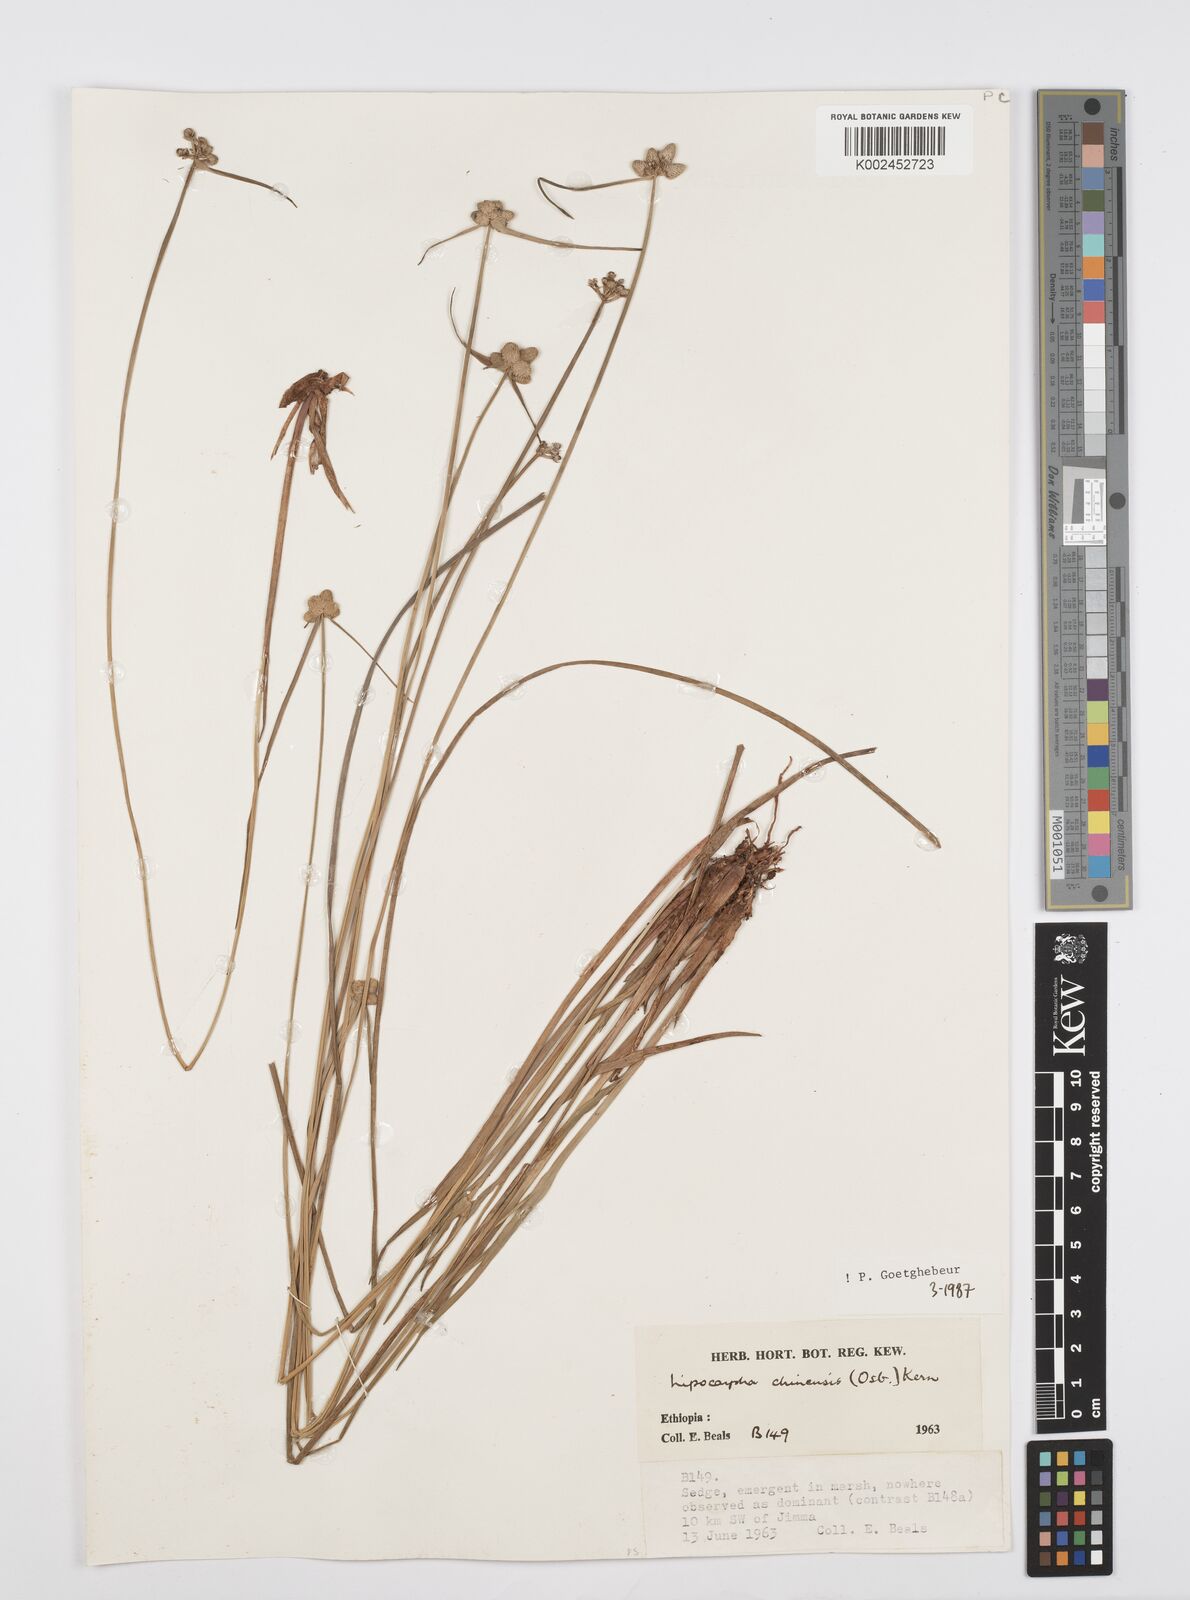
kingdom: Plantae
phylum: Tracheophyta
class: Liliopsida
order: Poales
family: Cyperaceae
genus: Cyperus
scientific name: Cyperus albescens
